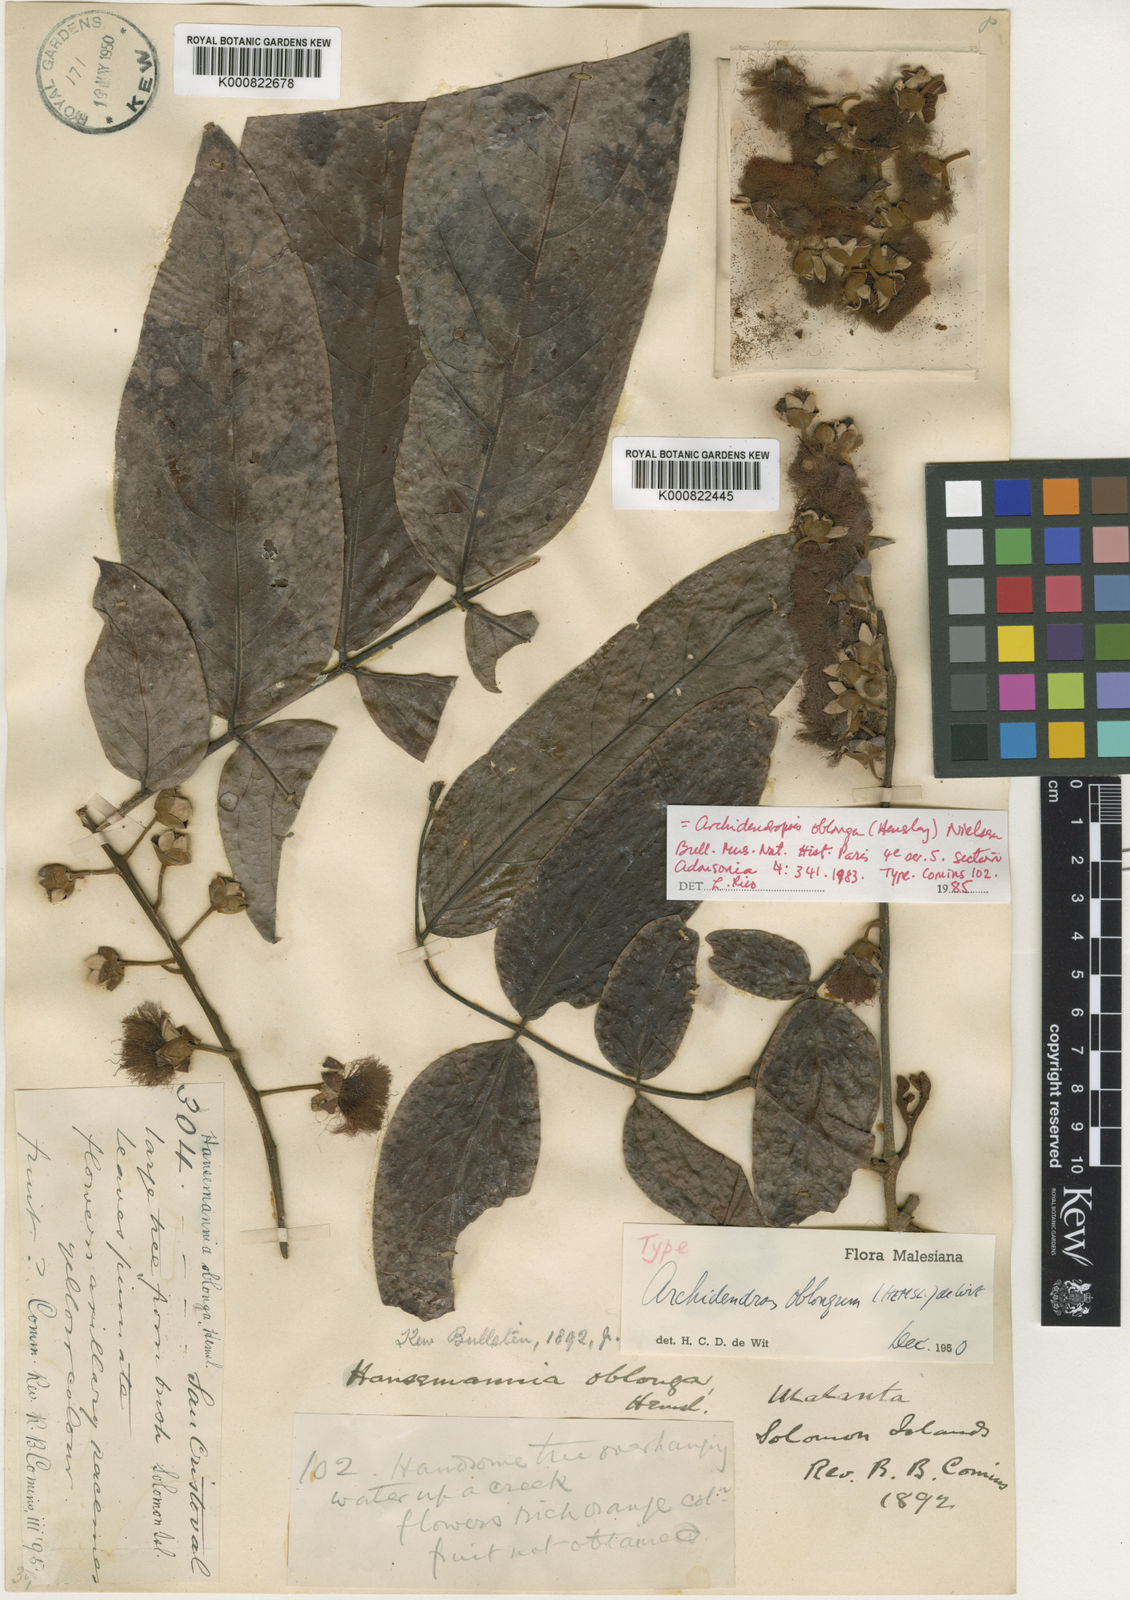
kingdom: Plantae
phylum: Tracheophyta
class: Magnoliopsida
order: Fabales
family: Fabaceae
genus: Archidendropsis
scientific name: Archidendropsis oblonga
